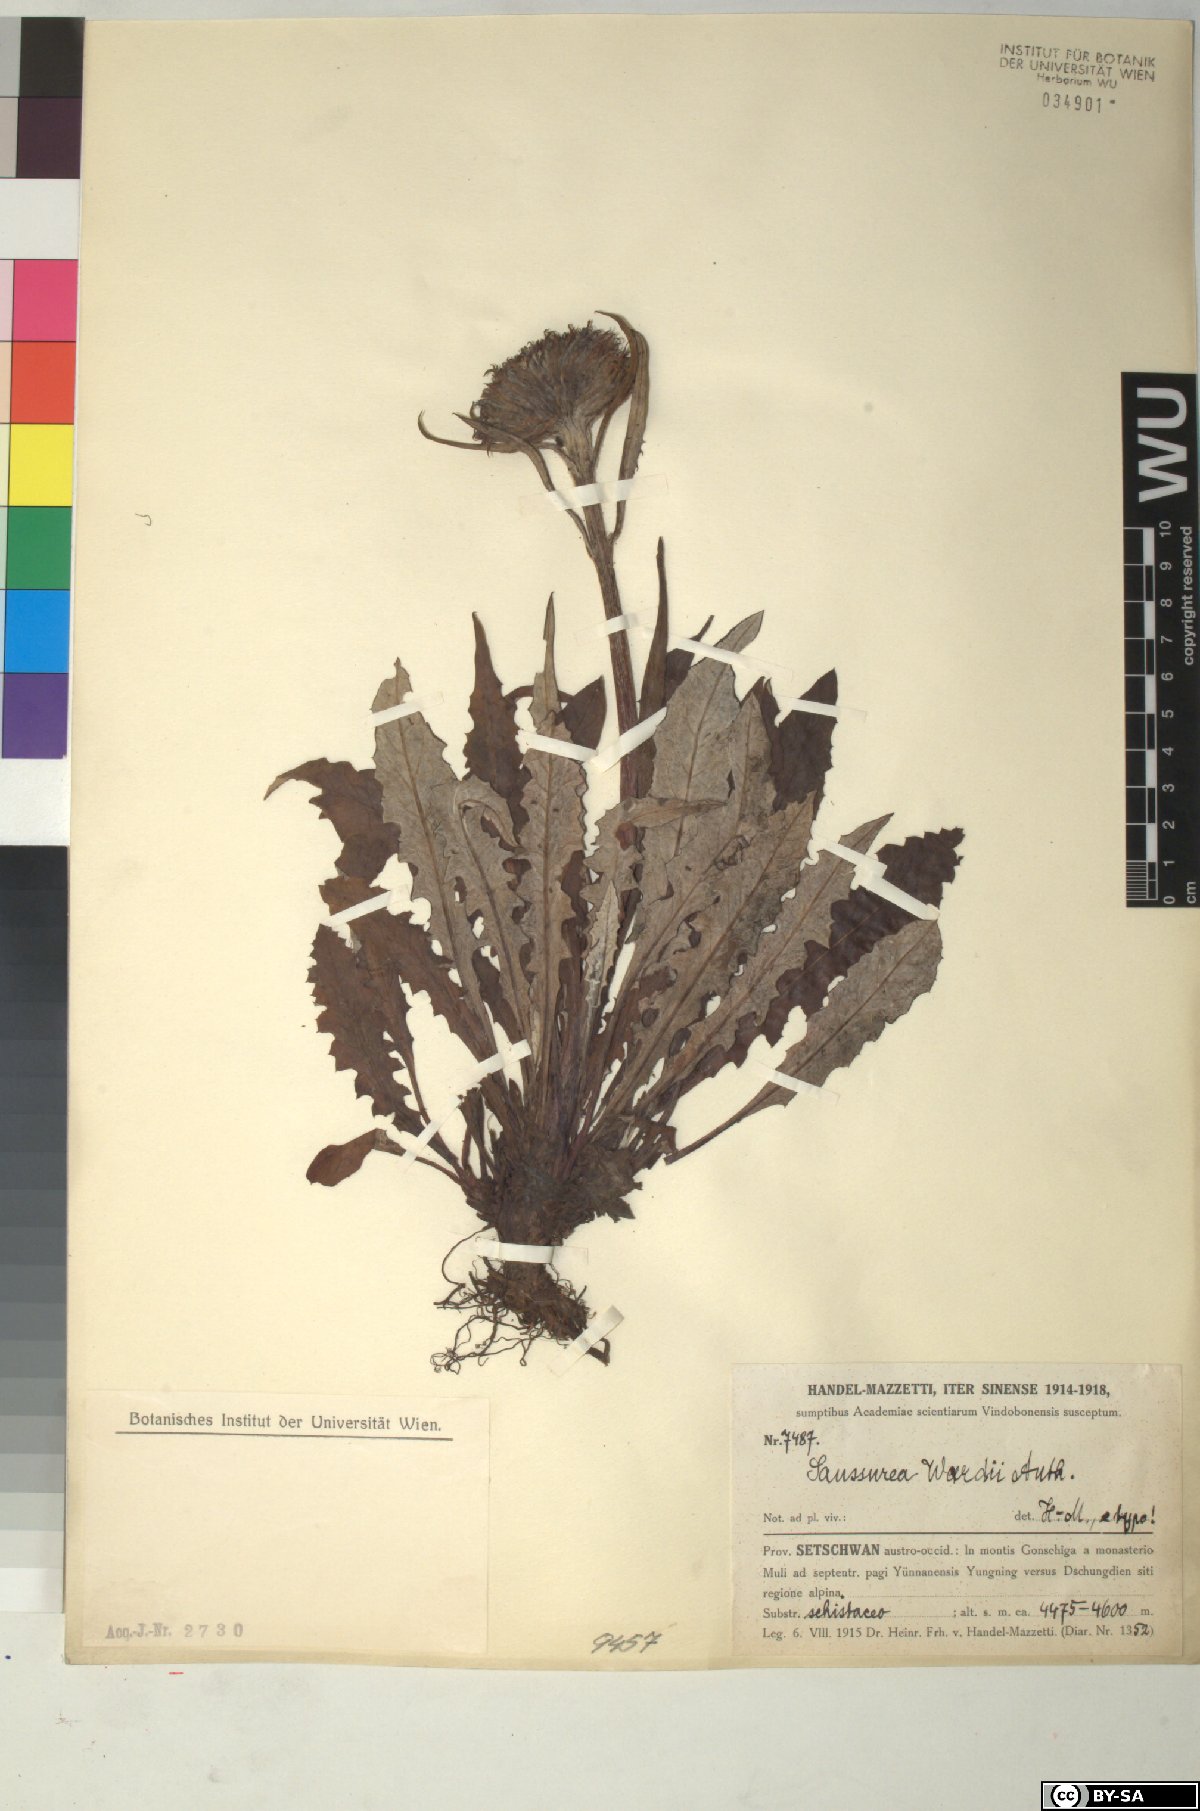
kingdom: Plantae
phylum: Tracheophyta
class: Magnoliopsida
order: Asterales
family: Asteraceae
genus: Saussurea
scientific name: Saussurea wardii
